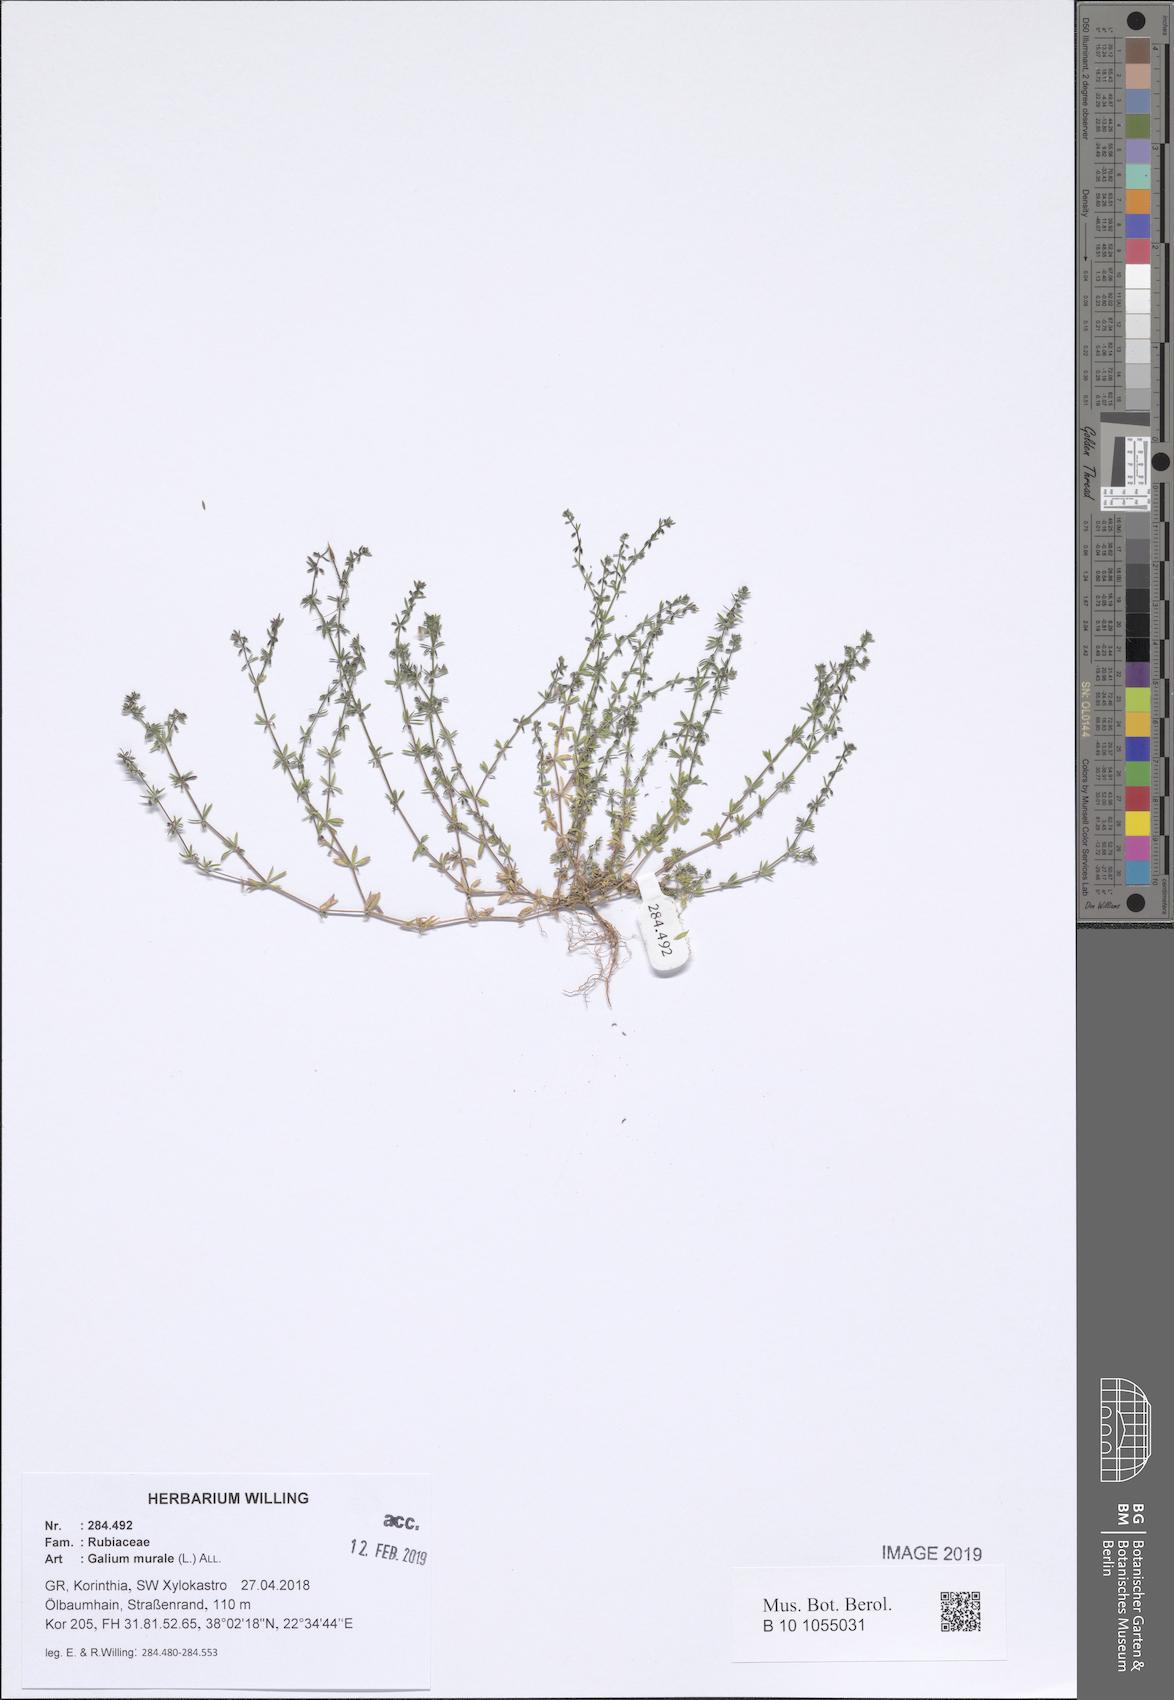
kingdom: Plantae
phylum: Tracheophyta
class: Magnoliopsida
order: Gentianales
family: Rubiaceae
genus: Galium
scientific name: Galium murale
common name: Yellow wall bedstraw
